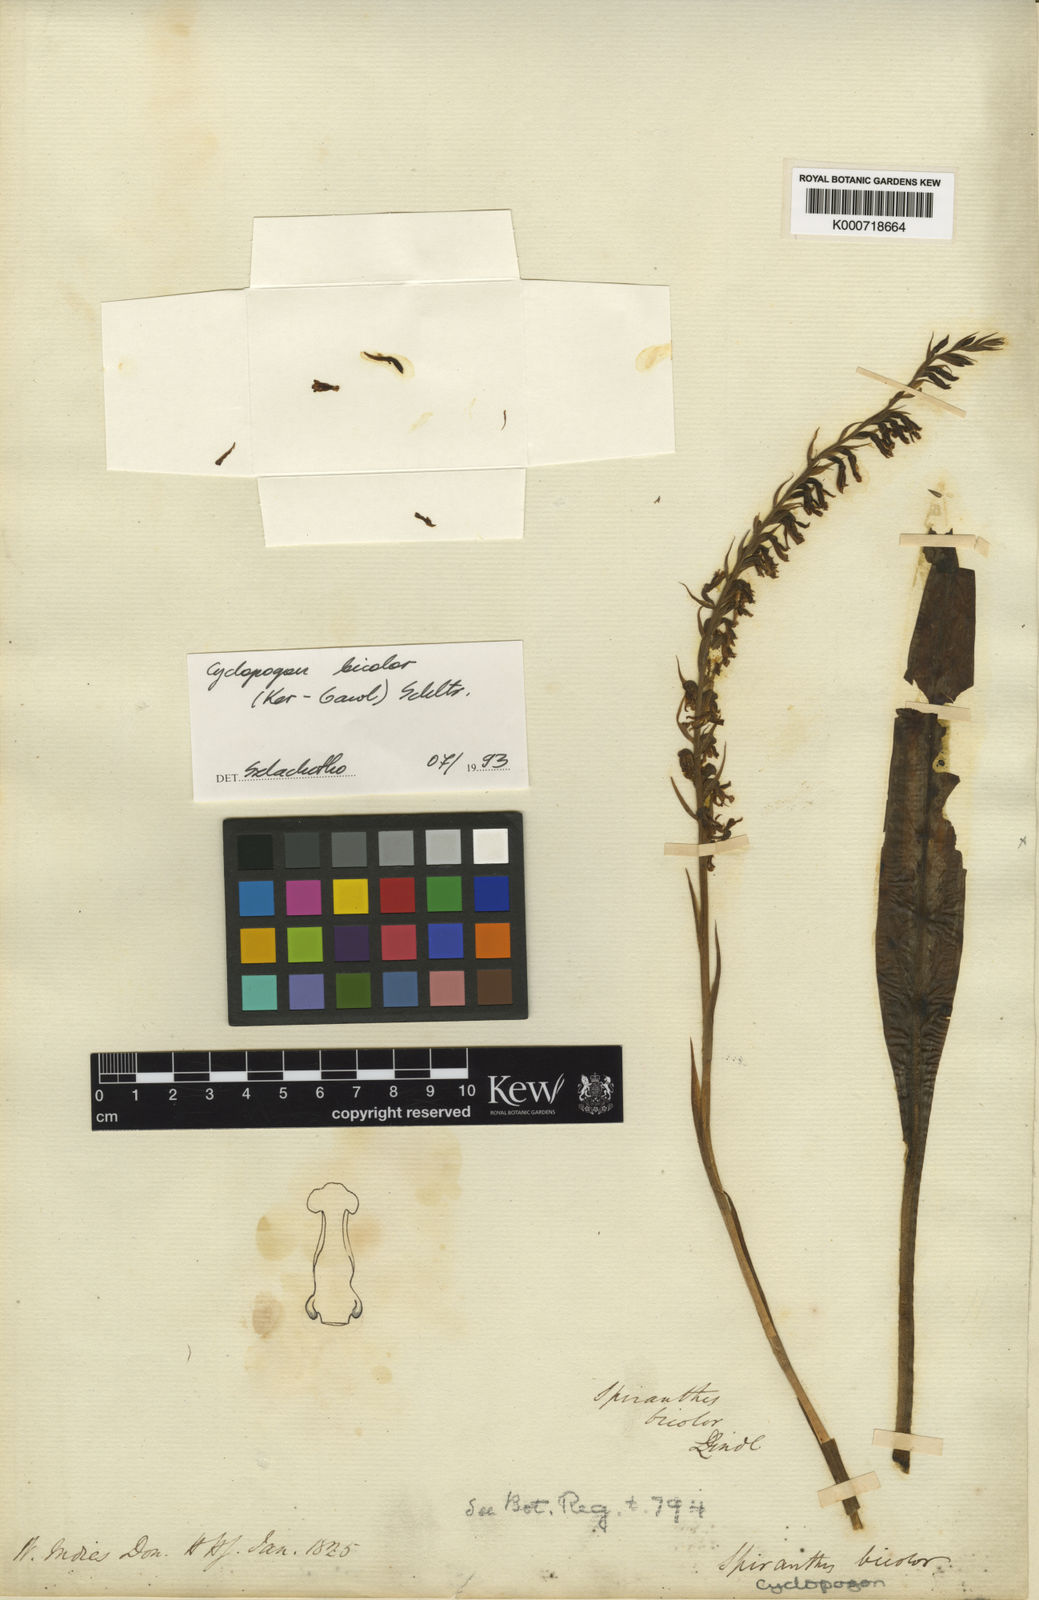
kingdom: Plantae
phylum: Tracheophyta
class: Liliopsida
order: Asparagales
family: Orchidaceae
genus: Cyclopogon
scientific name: Cyclopogon bicolor
